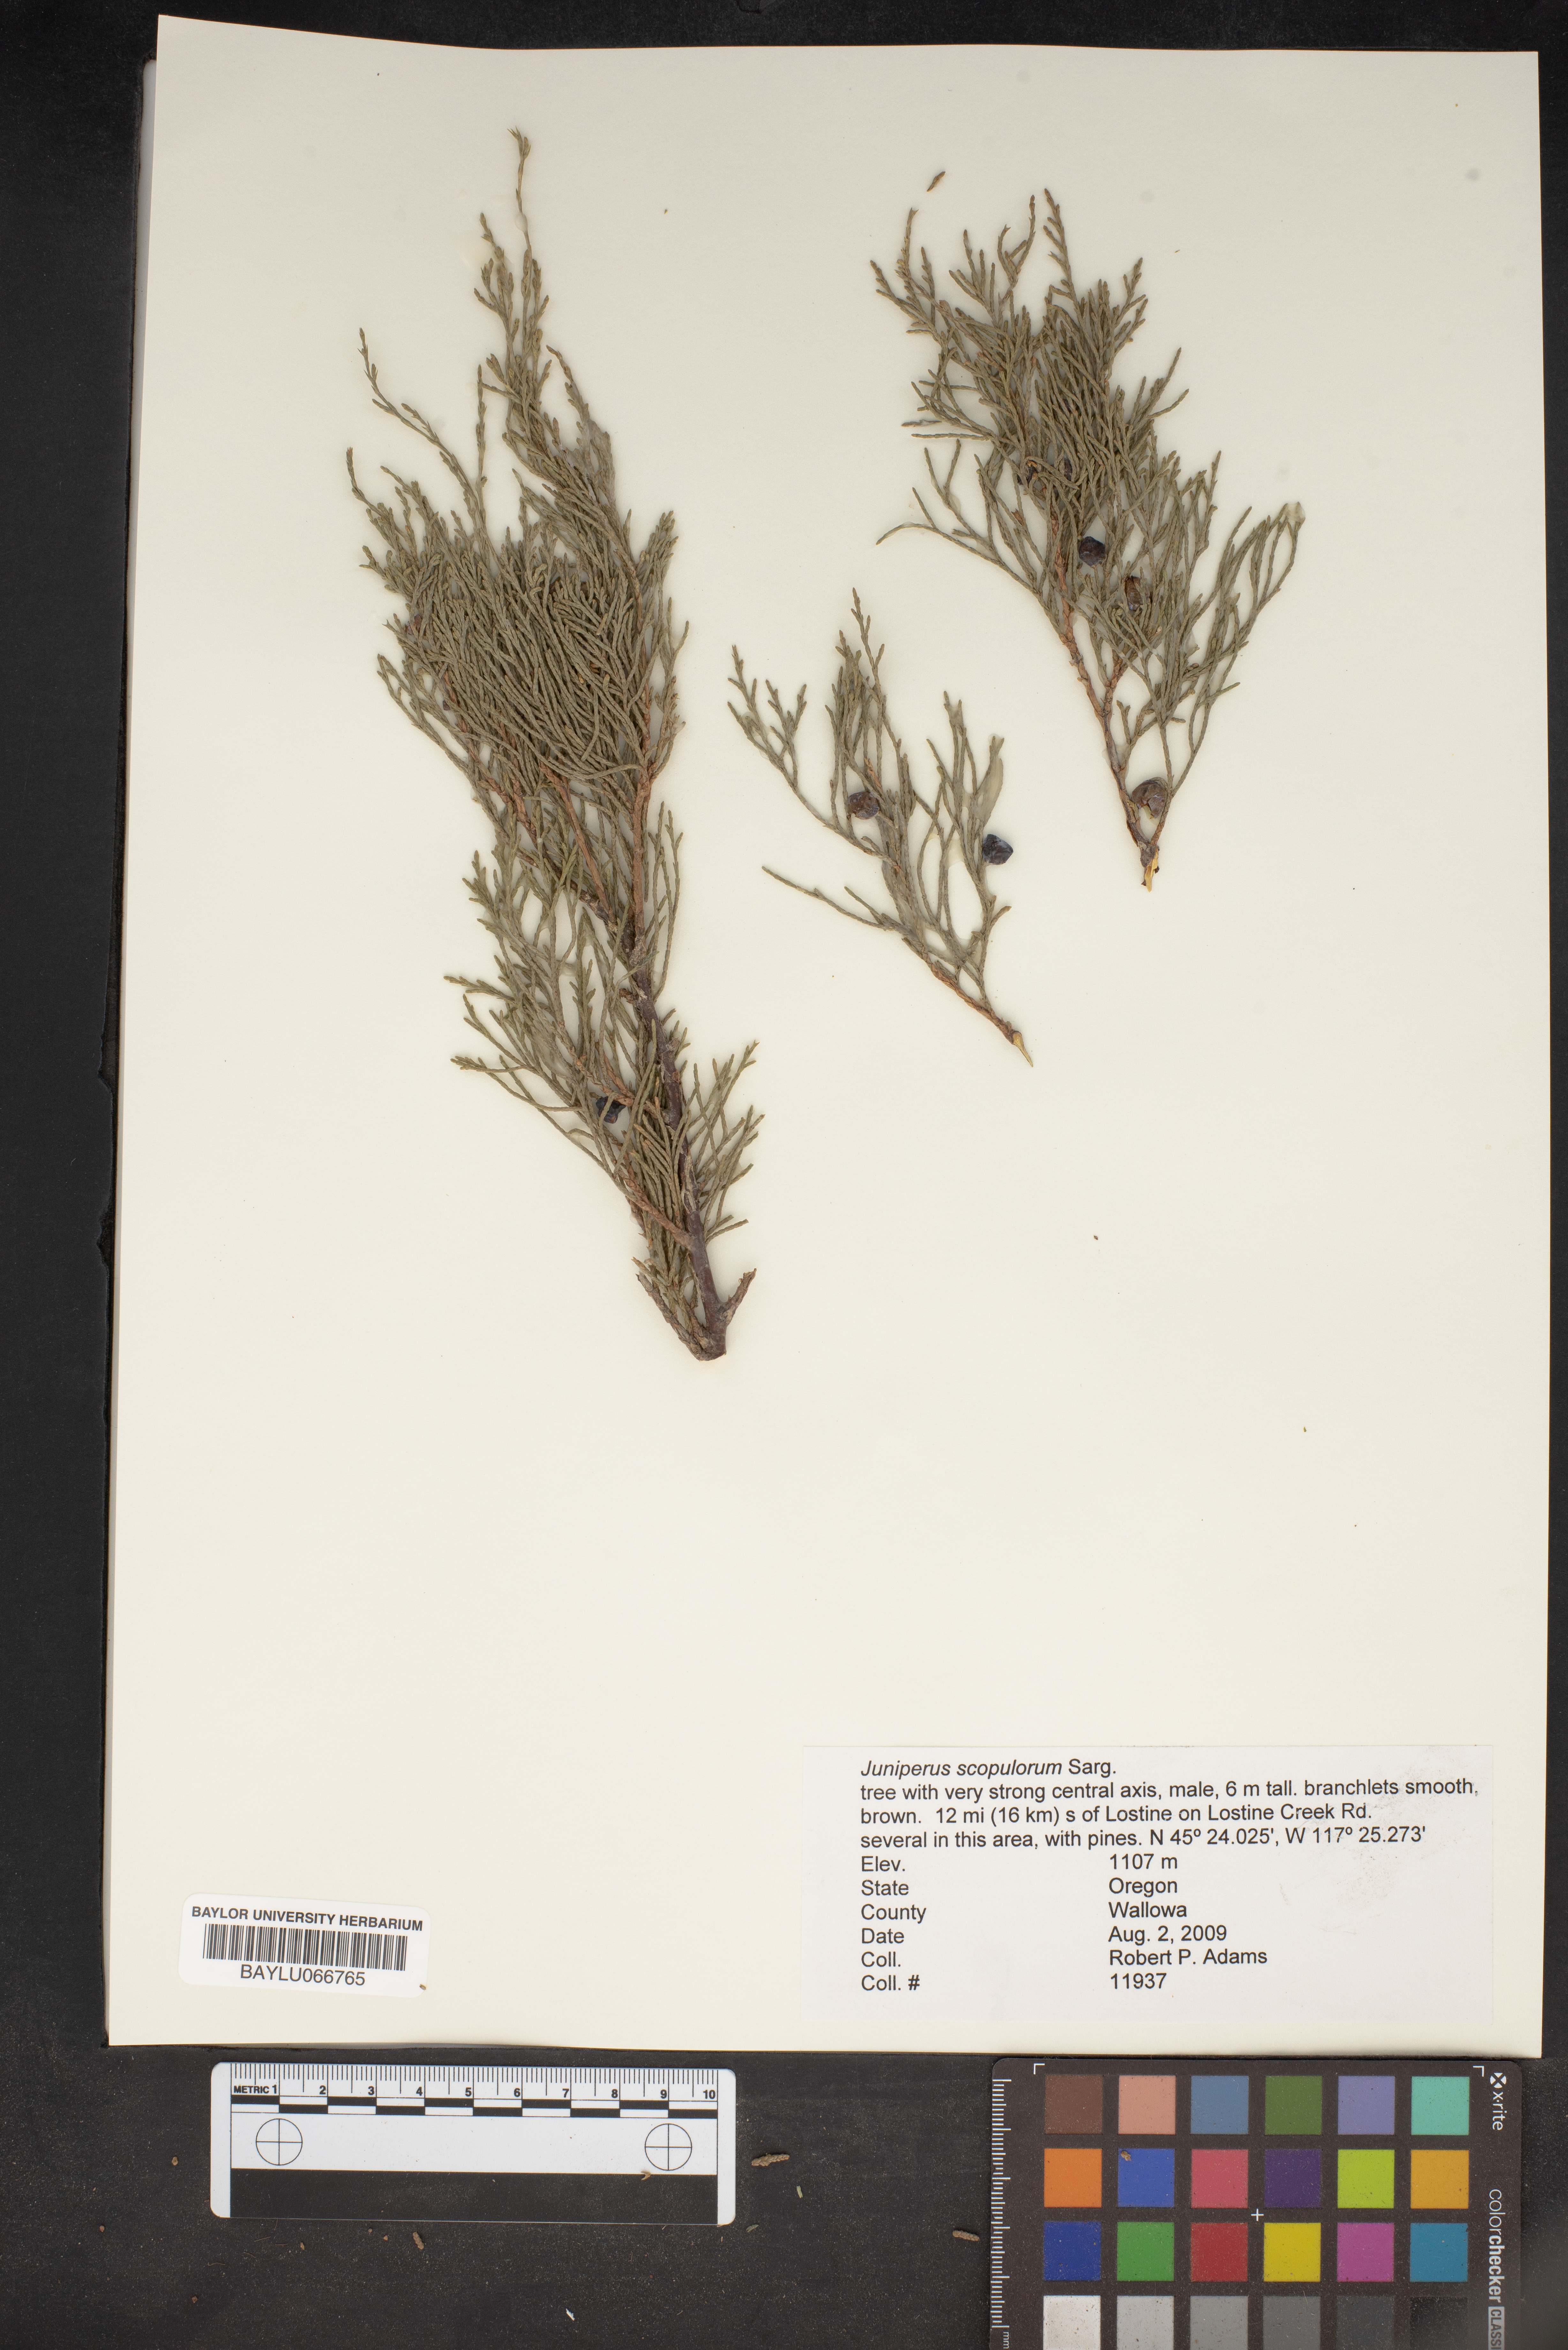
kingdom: Plantae
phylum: Tracheophyta
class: Pinopsida
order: Pinales
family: Cupressaceae
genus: Juniperus
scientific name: Juniperus scopulorum
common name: Rocky mountain juniper
